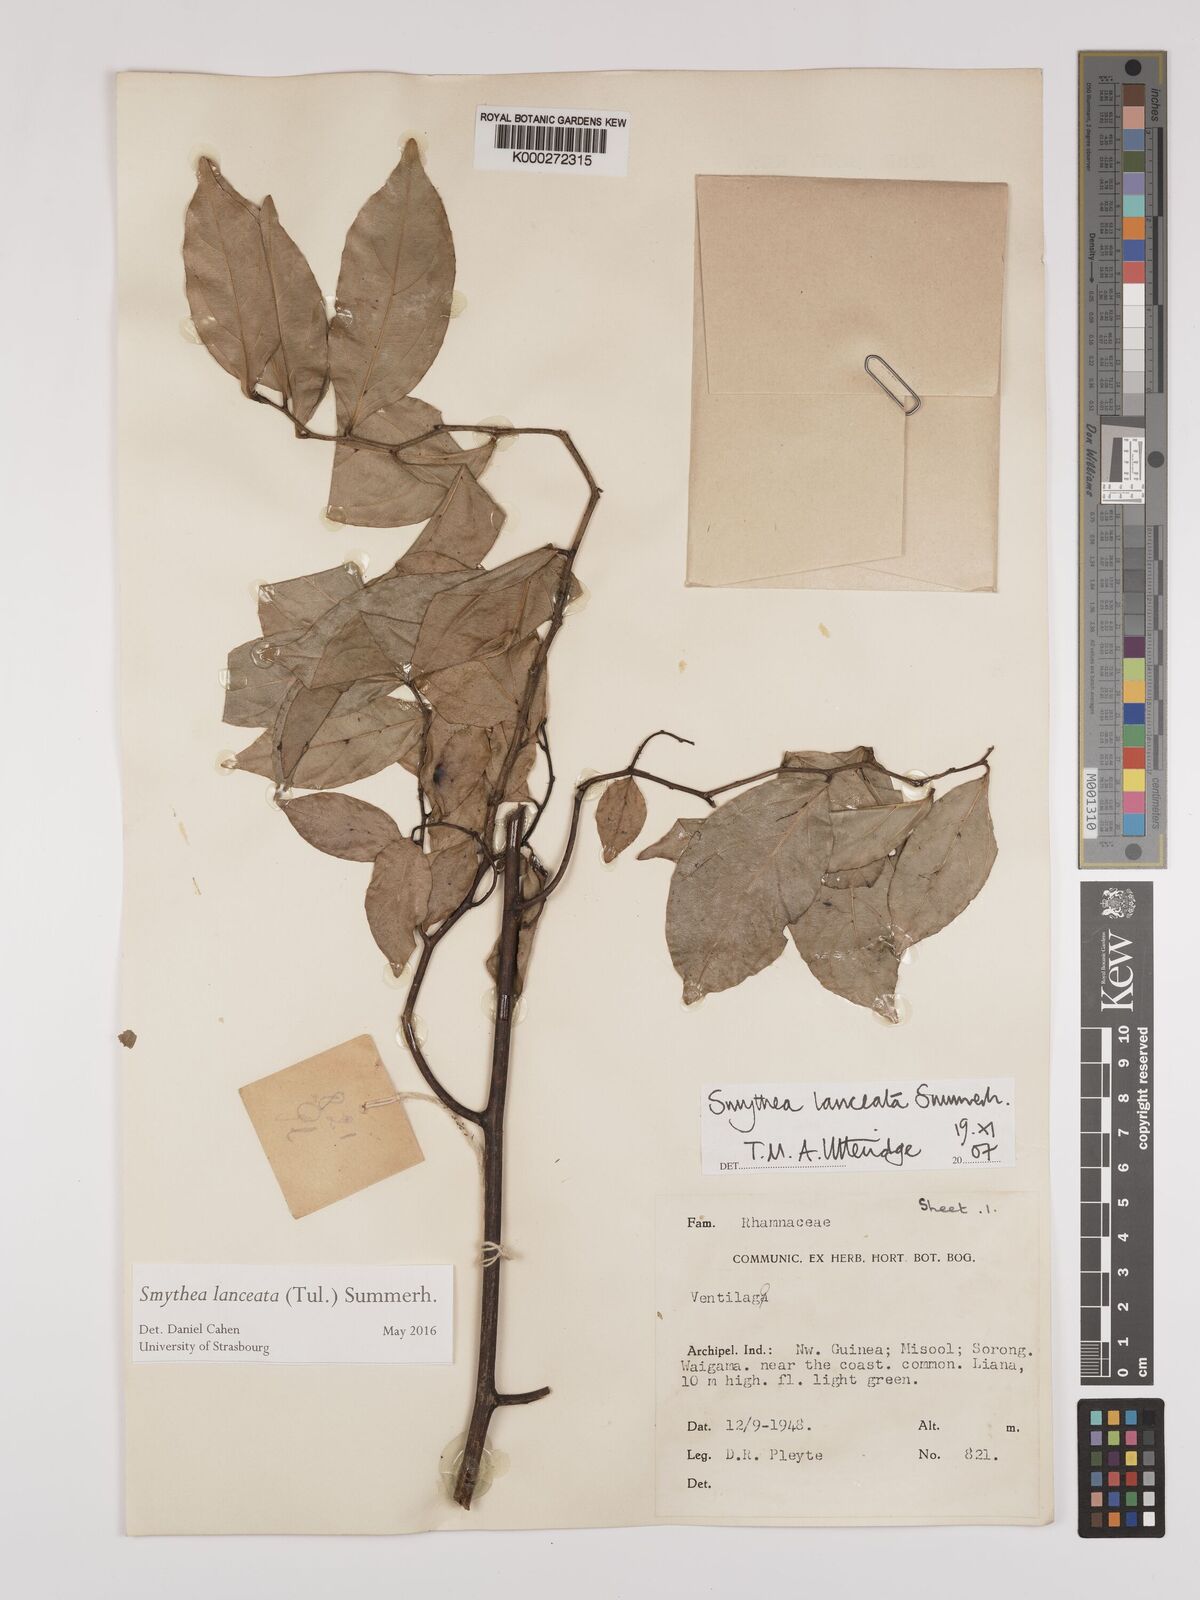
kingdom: Plantae
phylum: Tracheophyta
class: Magnoliopsida
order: Rosales
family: Rhamnaceae
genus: Smythea
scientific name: Smythea lanceata
